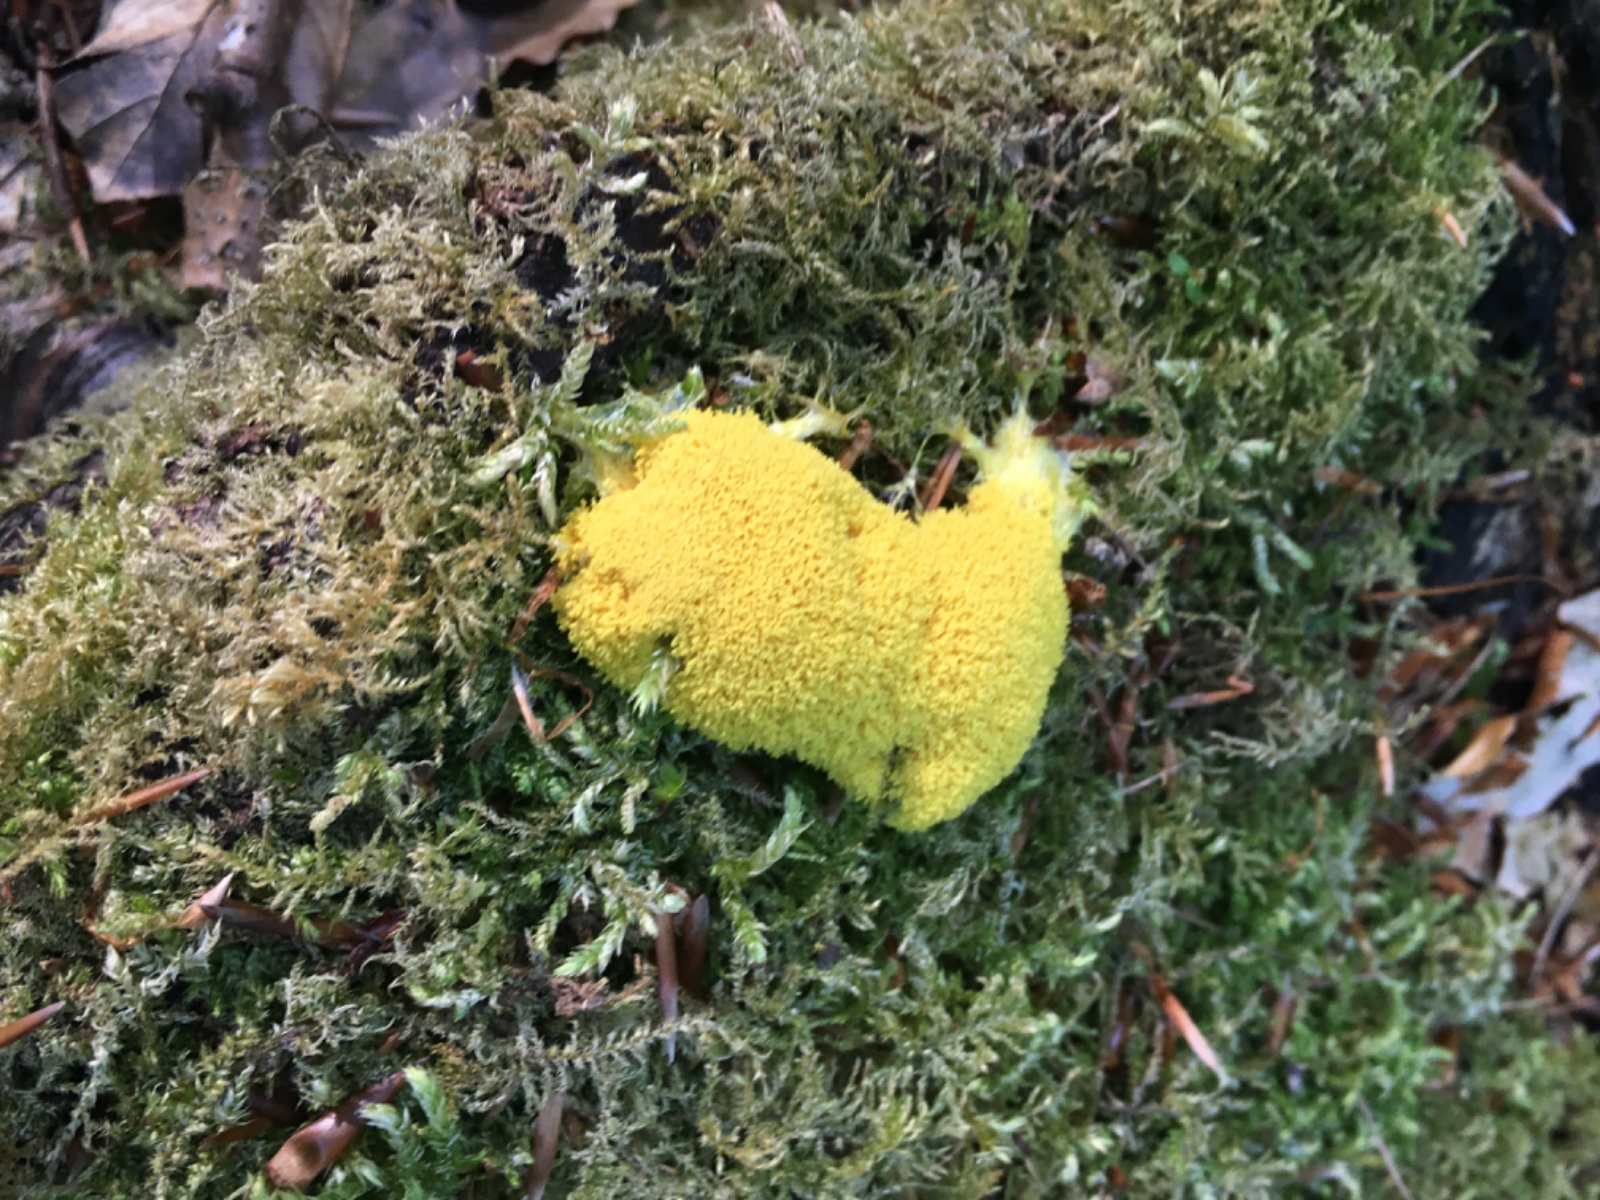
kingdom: Protozoa
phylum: Mycetozoa
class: Myxomycetes
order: Physarales
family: Physaraceae
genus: Fuligo
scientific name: Fuligo septica
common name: gul troldsmør
